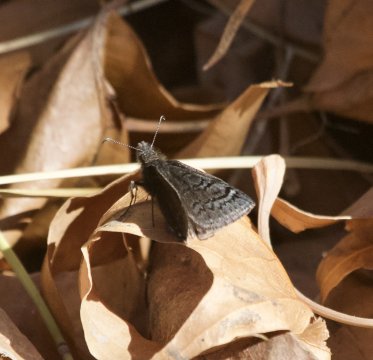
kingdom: Animalia
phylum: Arthropoda
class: Insecta
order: Lepidoptera
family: Hesperiidae
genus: Erynnis
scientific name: Erynnis brizo
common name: Sleepy Duskywing
